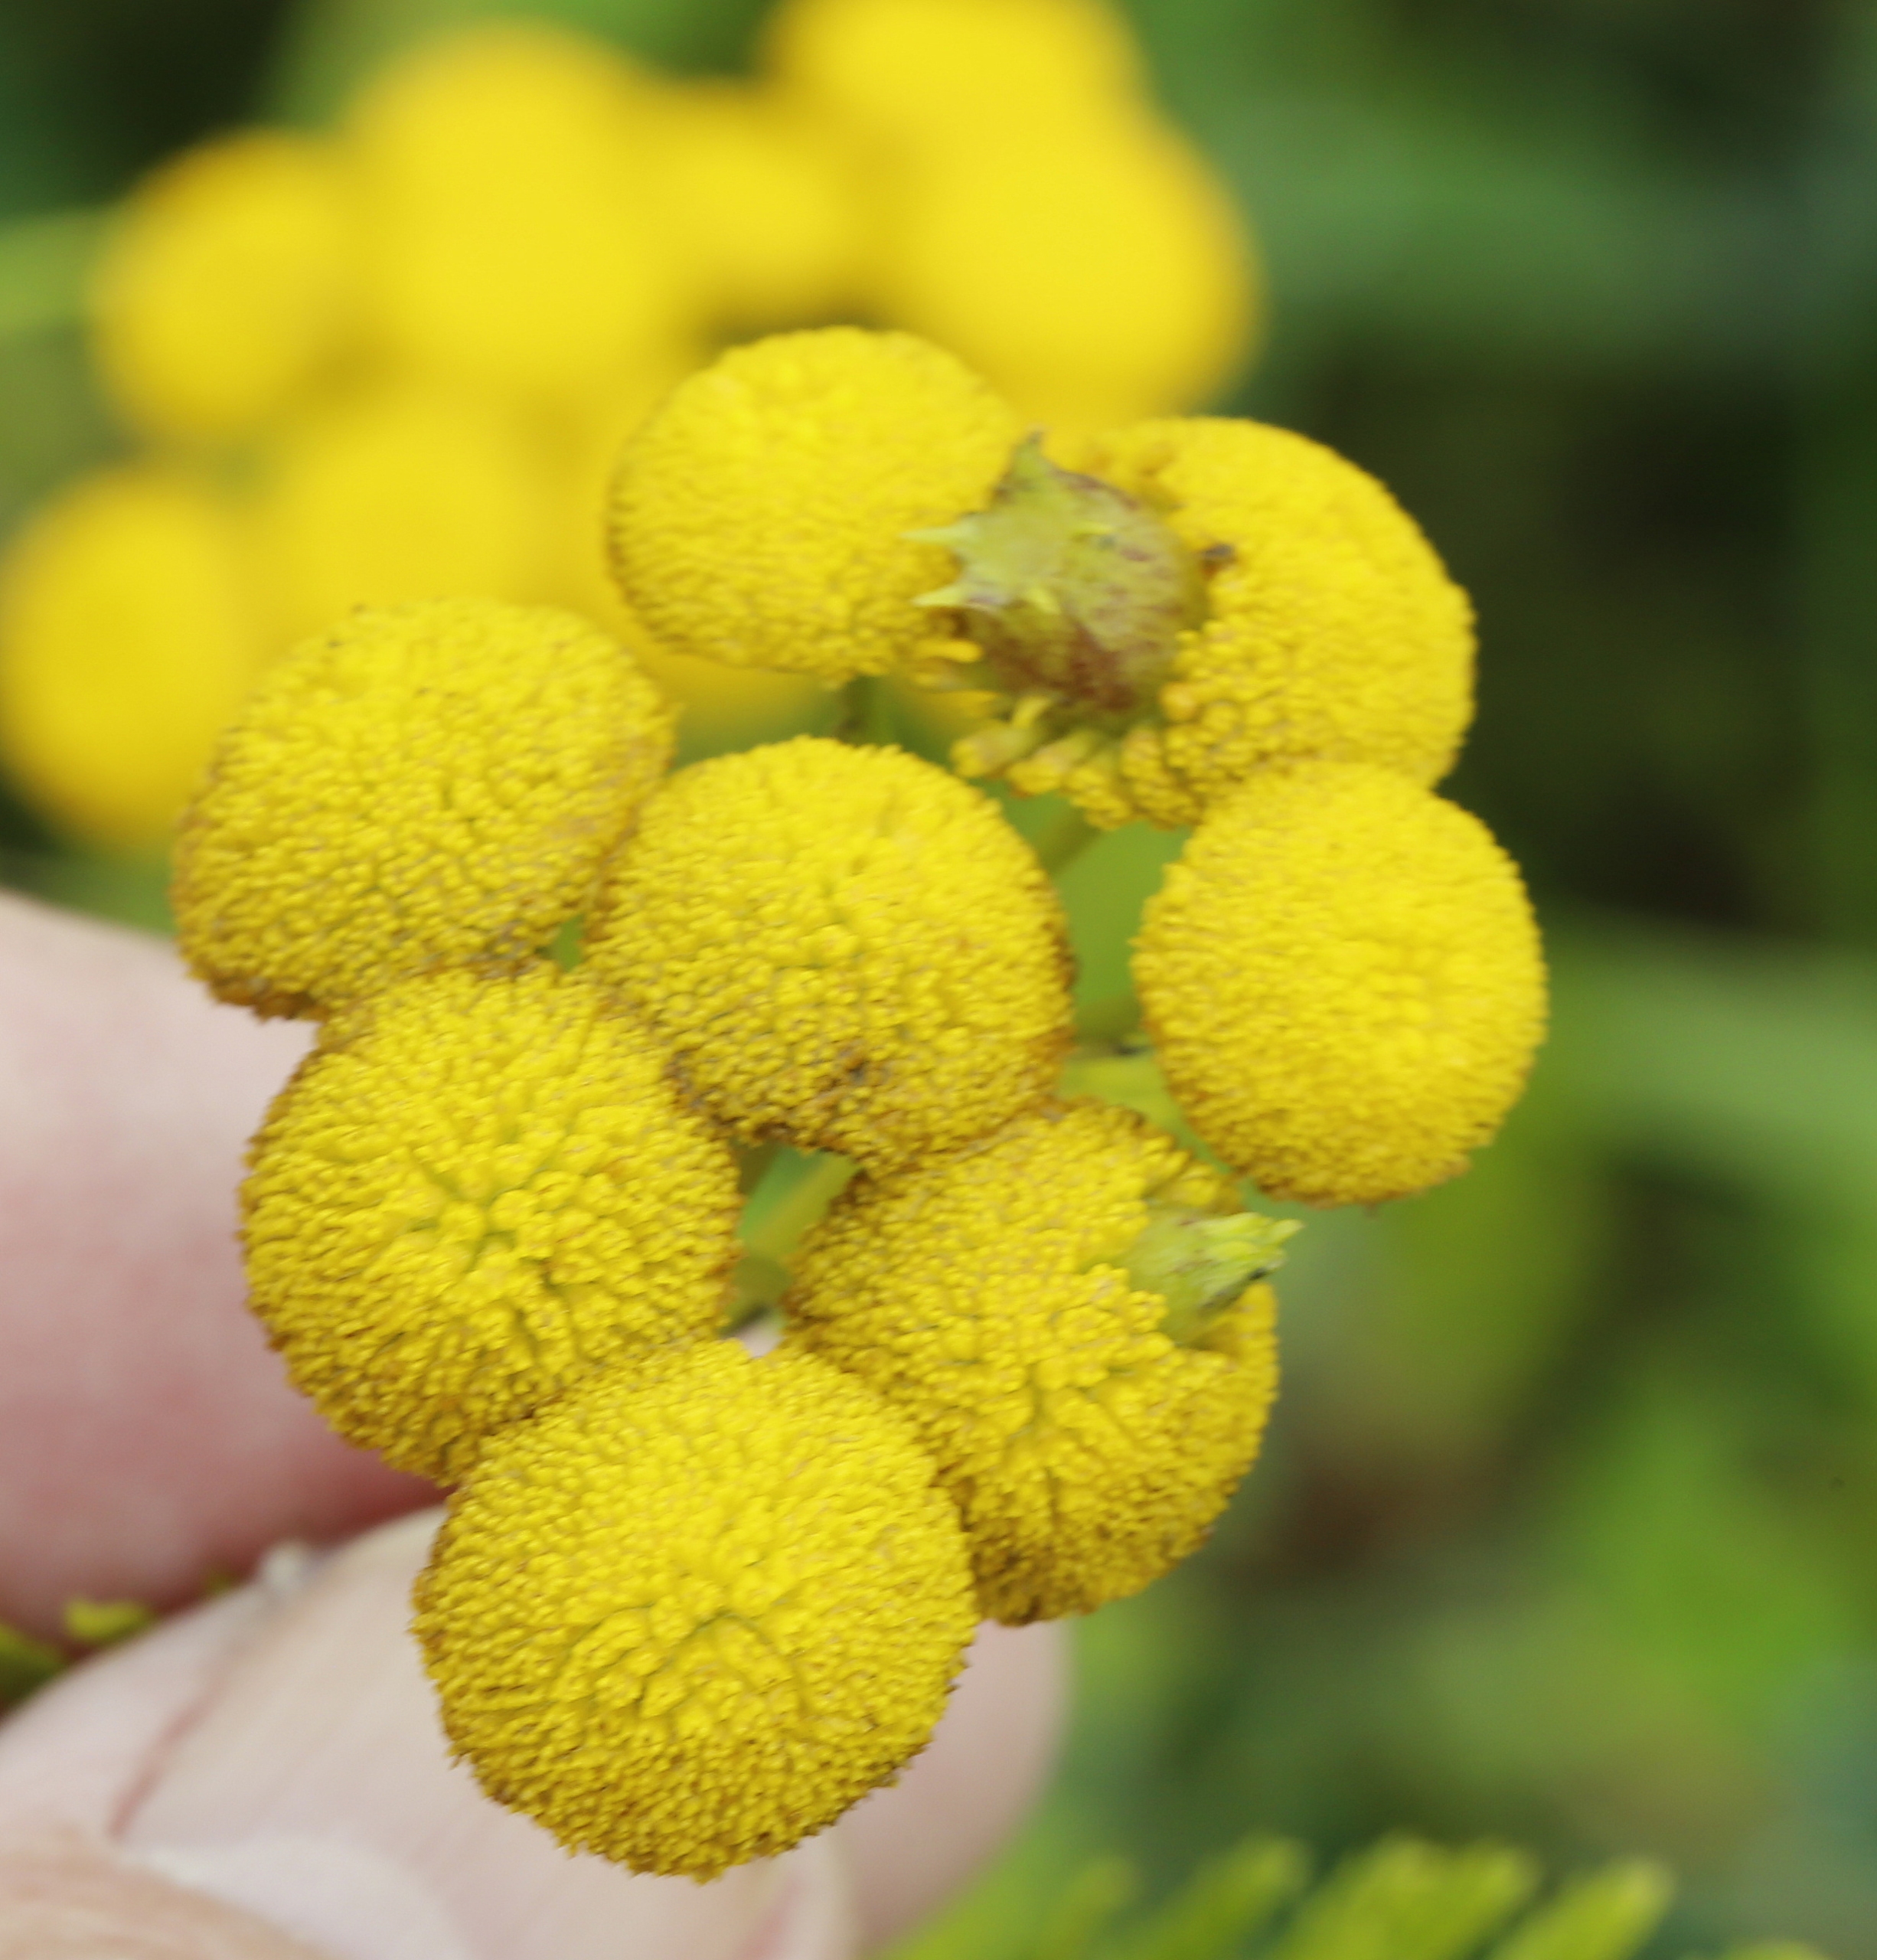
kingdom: Animalia
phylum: Arthropoda
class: Insecta
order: Diptera
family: Cecidomyiidae
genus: Rhopalomyia
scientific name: Rhopalomyia tanaceticolus
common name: Rejnfangalmyg
